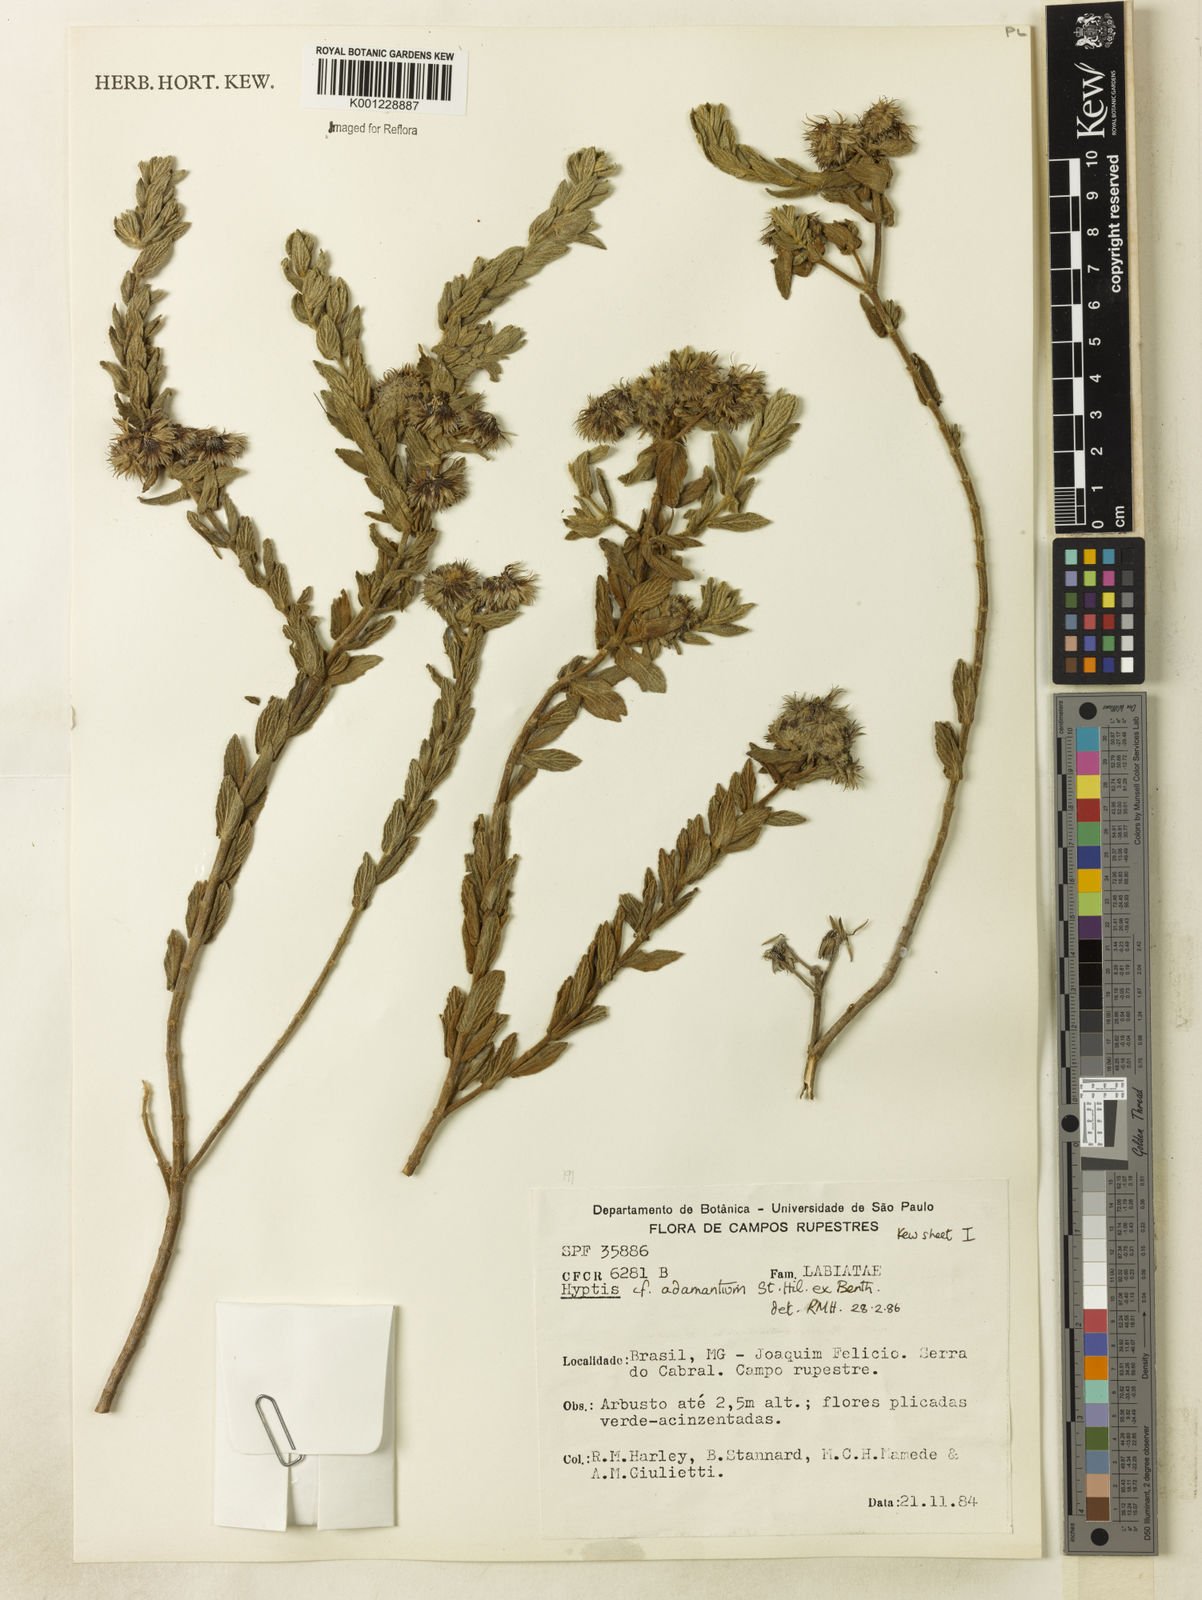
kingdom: Plantae
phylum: Tracheophyta
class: Magnoliopsida
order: Lamiales
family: Lamiaceae
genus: Hyptis
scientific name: Hyptis adamantium
